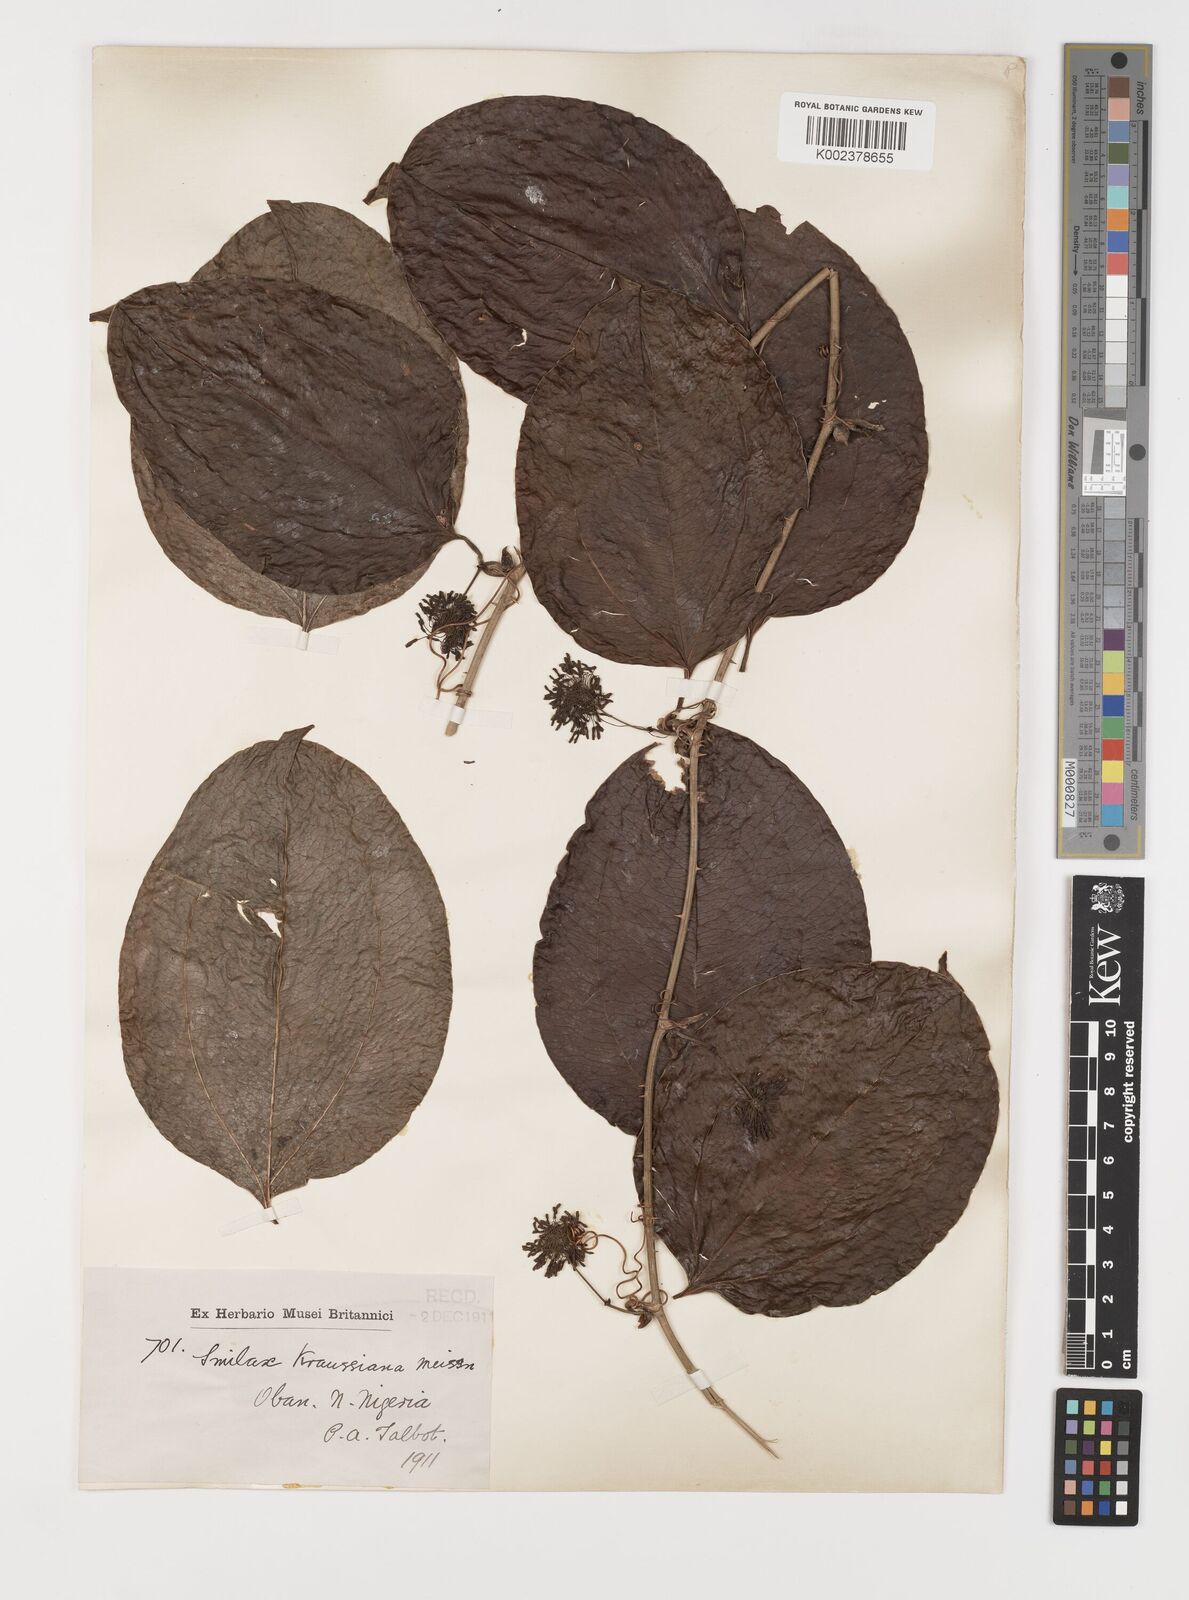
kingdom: Plantae
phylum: Tracheophyta
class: Liliopsida
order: Liliales
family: Smilacaceae
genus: Smilax
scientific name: Smilax anceps
